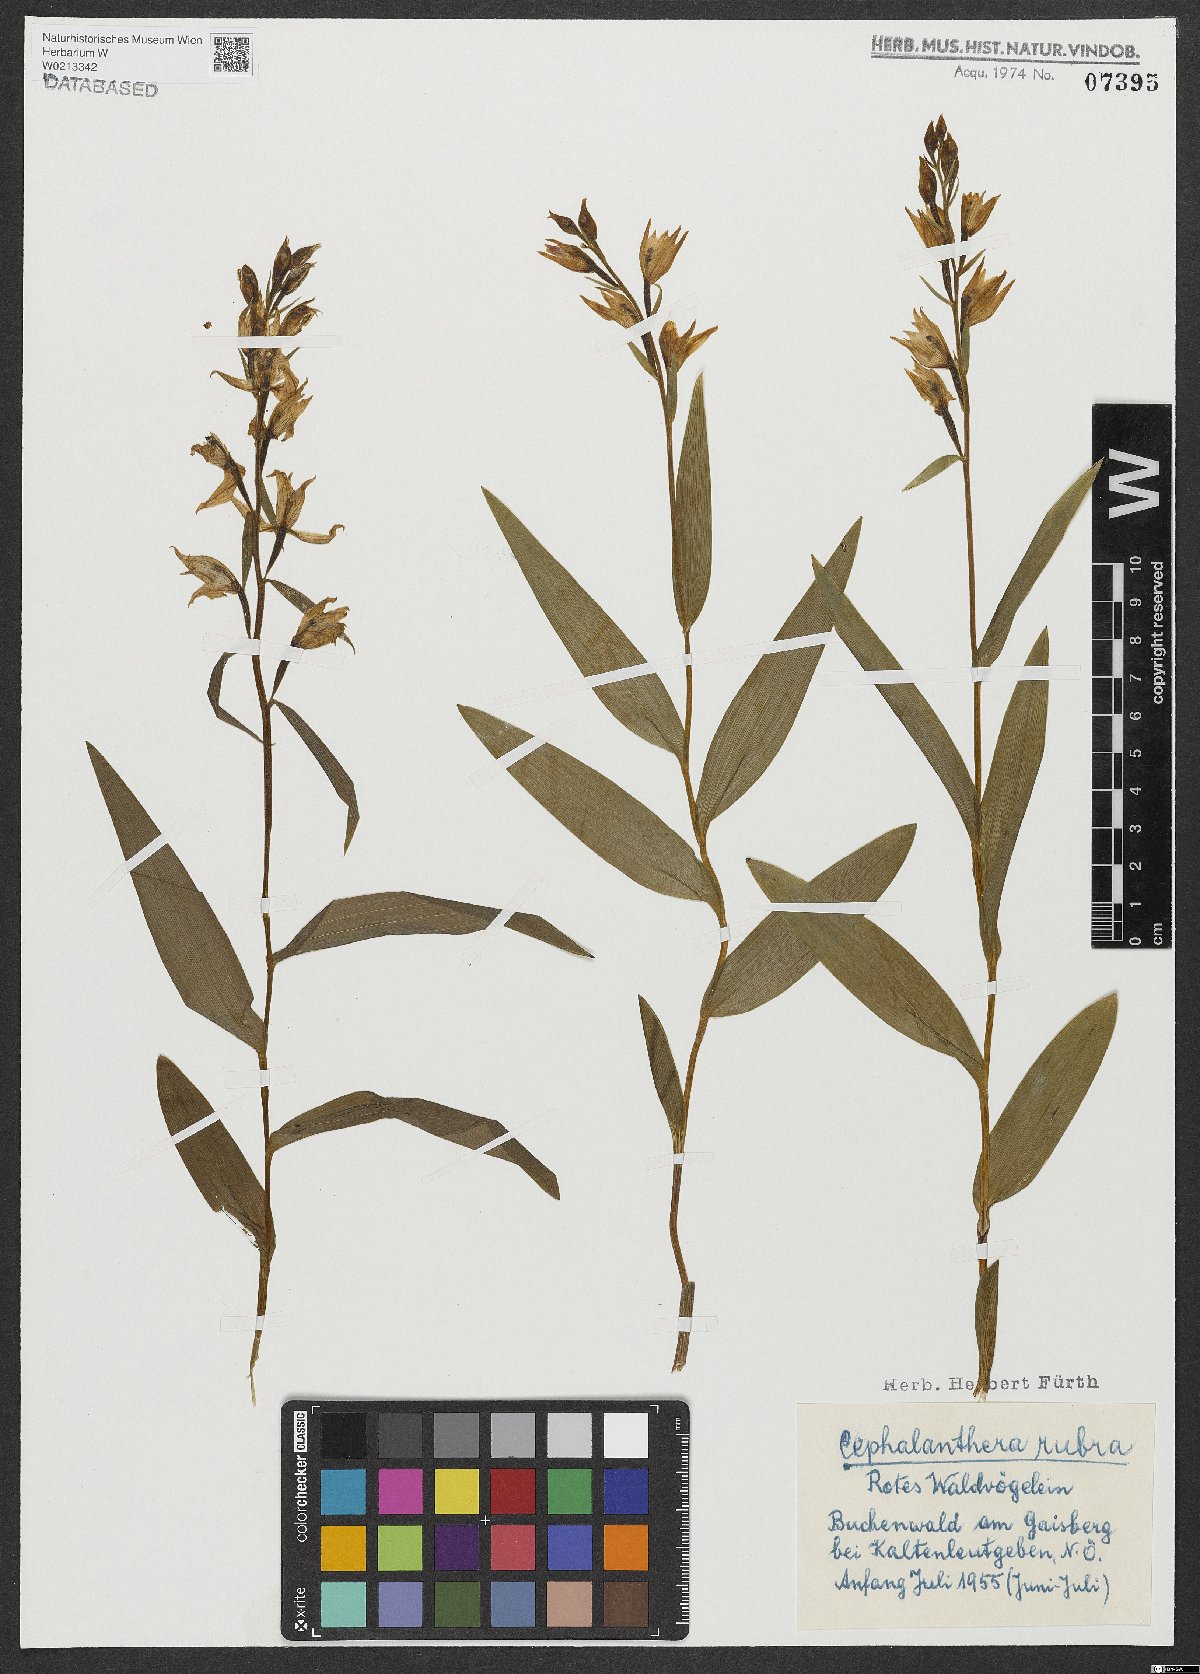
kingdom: Plantae
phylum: Tracheophyta
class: Liliopsida
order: Asparagales
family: Orchidaceae
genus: Cephalanthera
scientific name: Cephalanthera rubra
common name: Red helleborine
